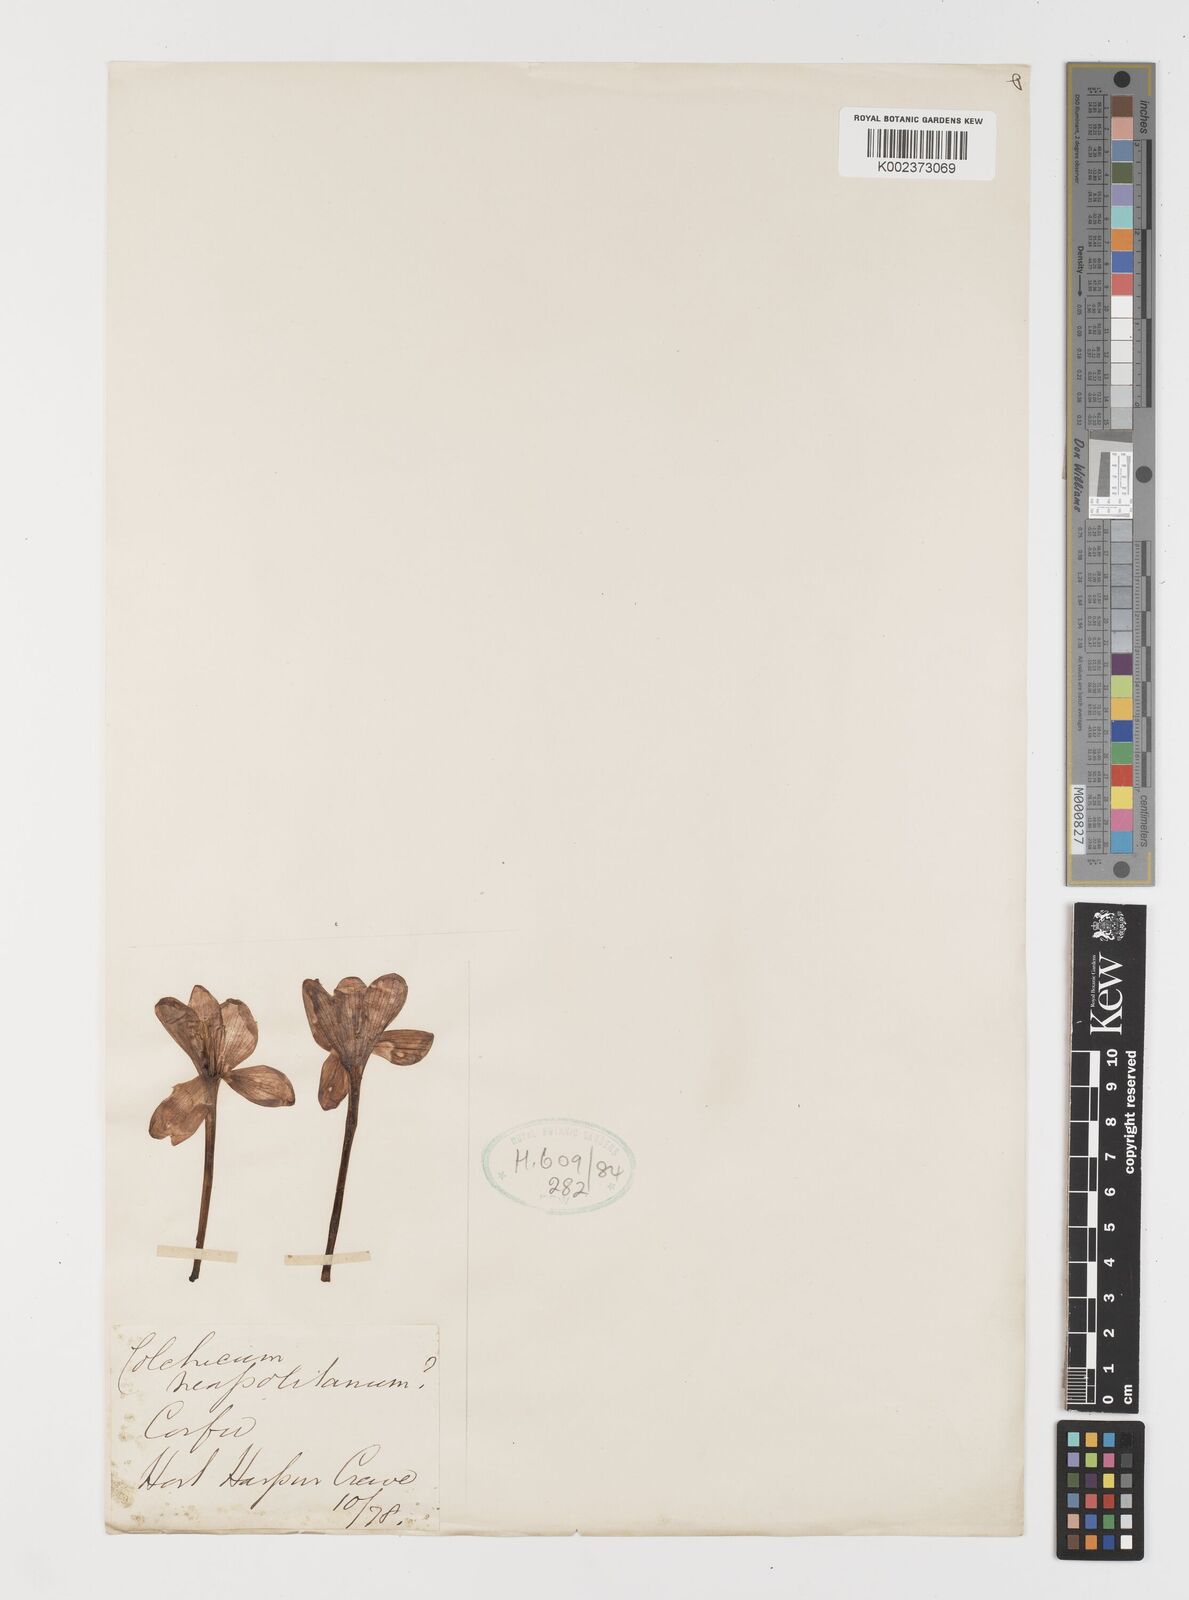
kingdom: Plantae
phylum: Tracheophyta
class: Liliopsida
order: Liliales
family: Colchicaceae
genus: Colchicum
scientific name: Colchicum neapolitanum
